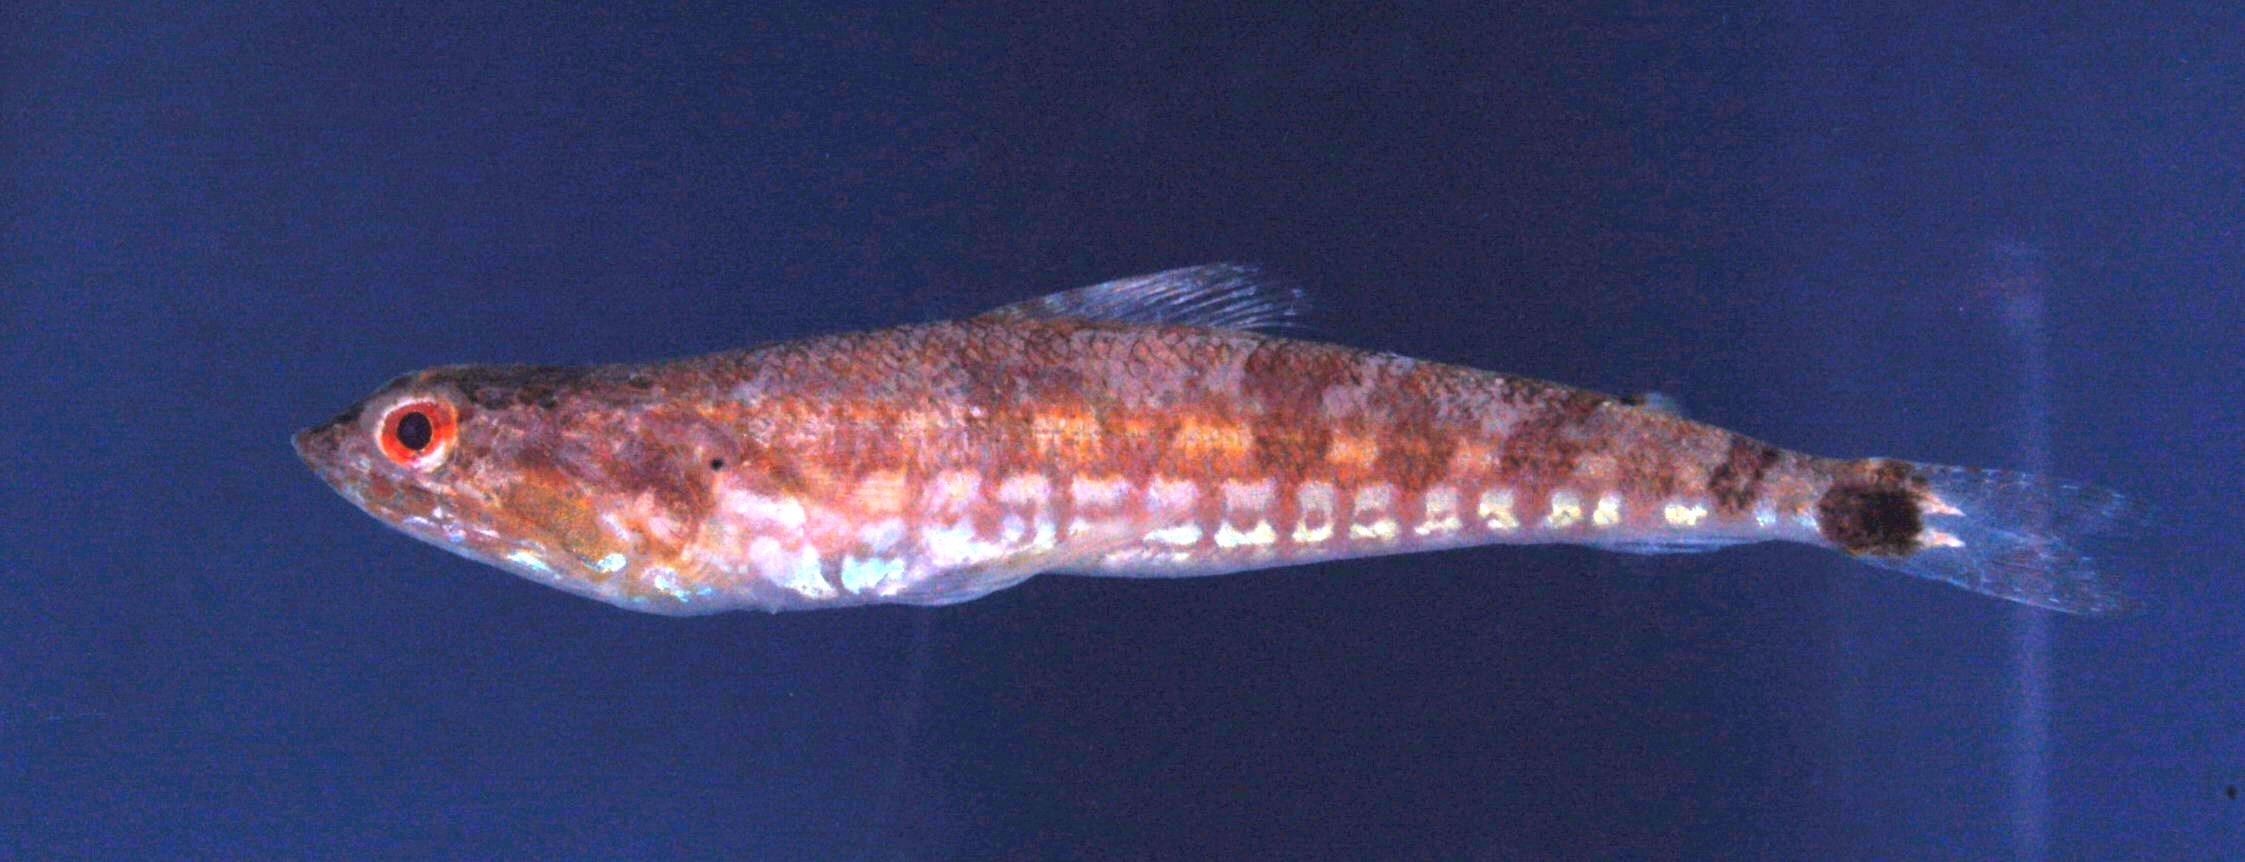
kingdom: Animalia
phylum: Chordata
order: Aulopiformes
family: Synodontidae
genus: Synodus
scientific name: Synodus jaculum
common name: Lighthouse lizardfish
